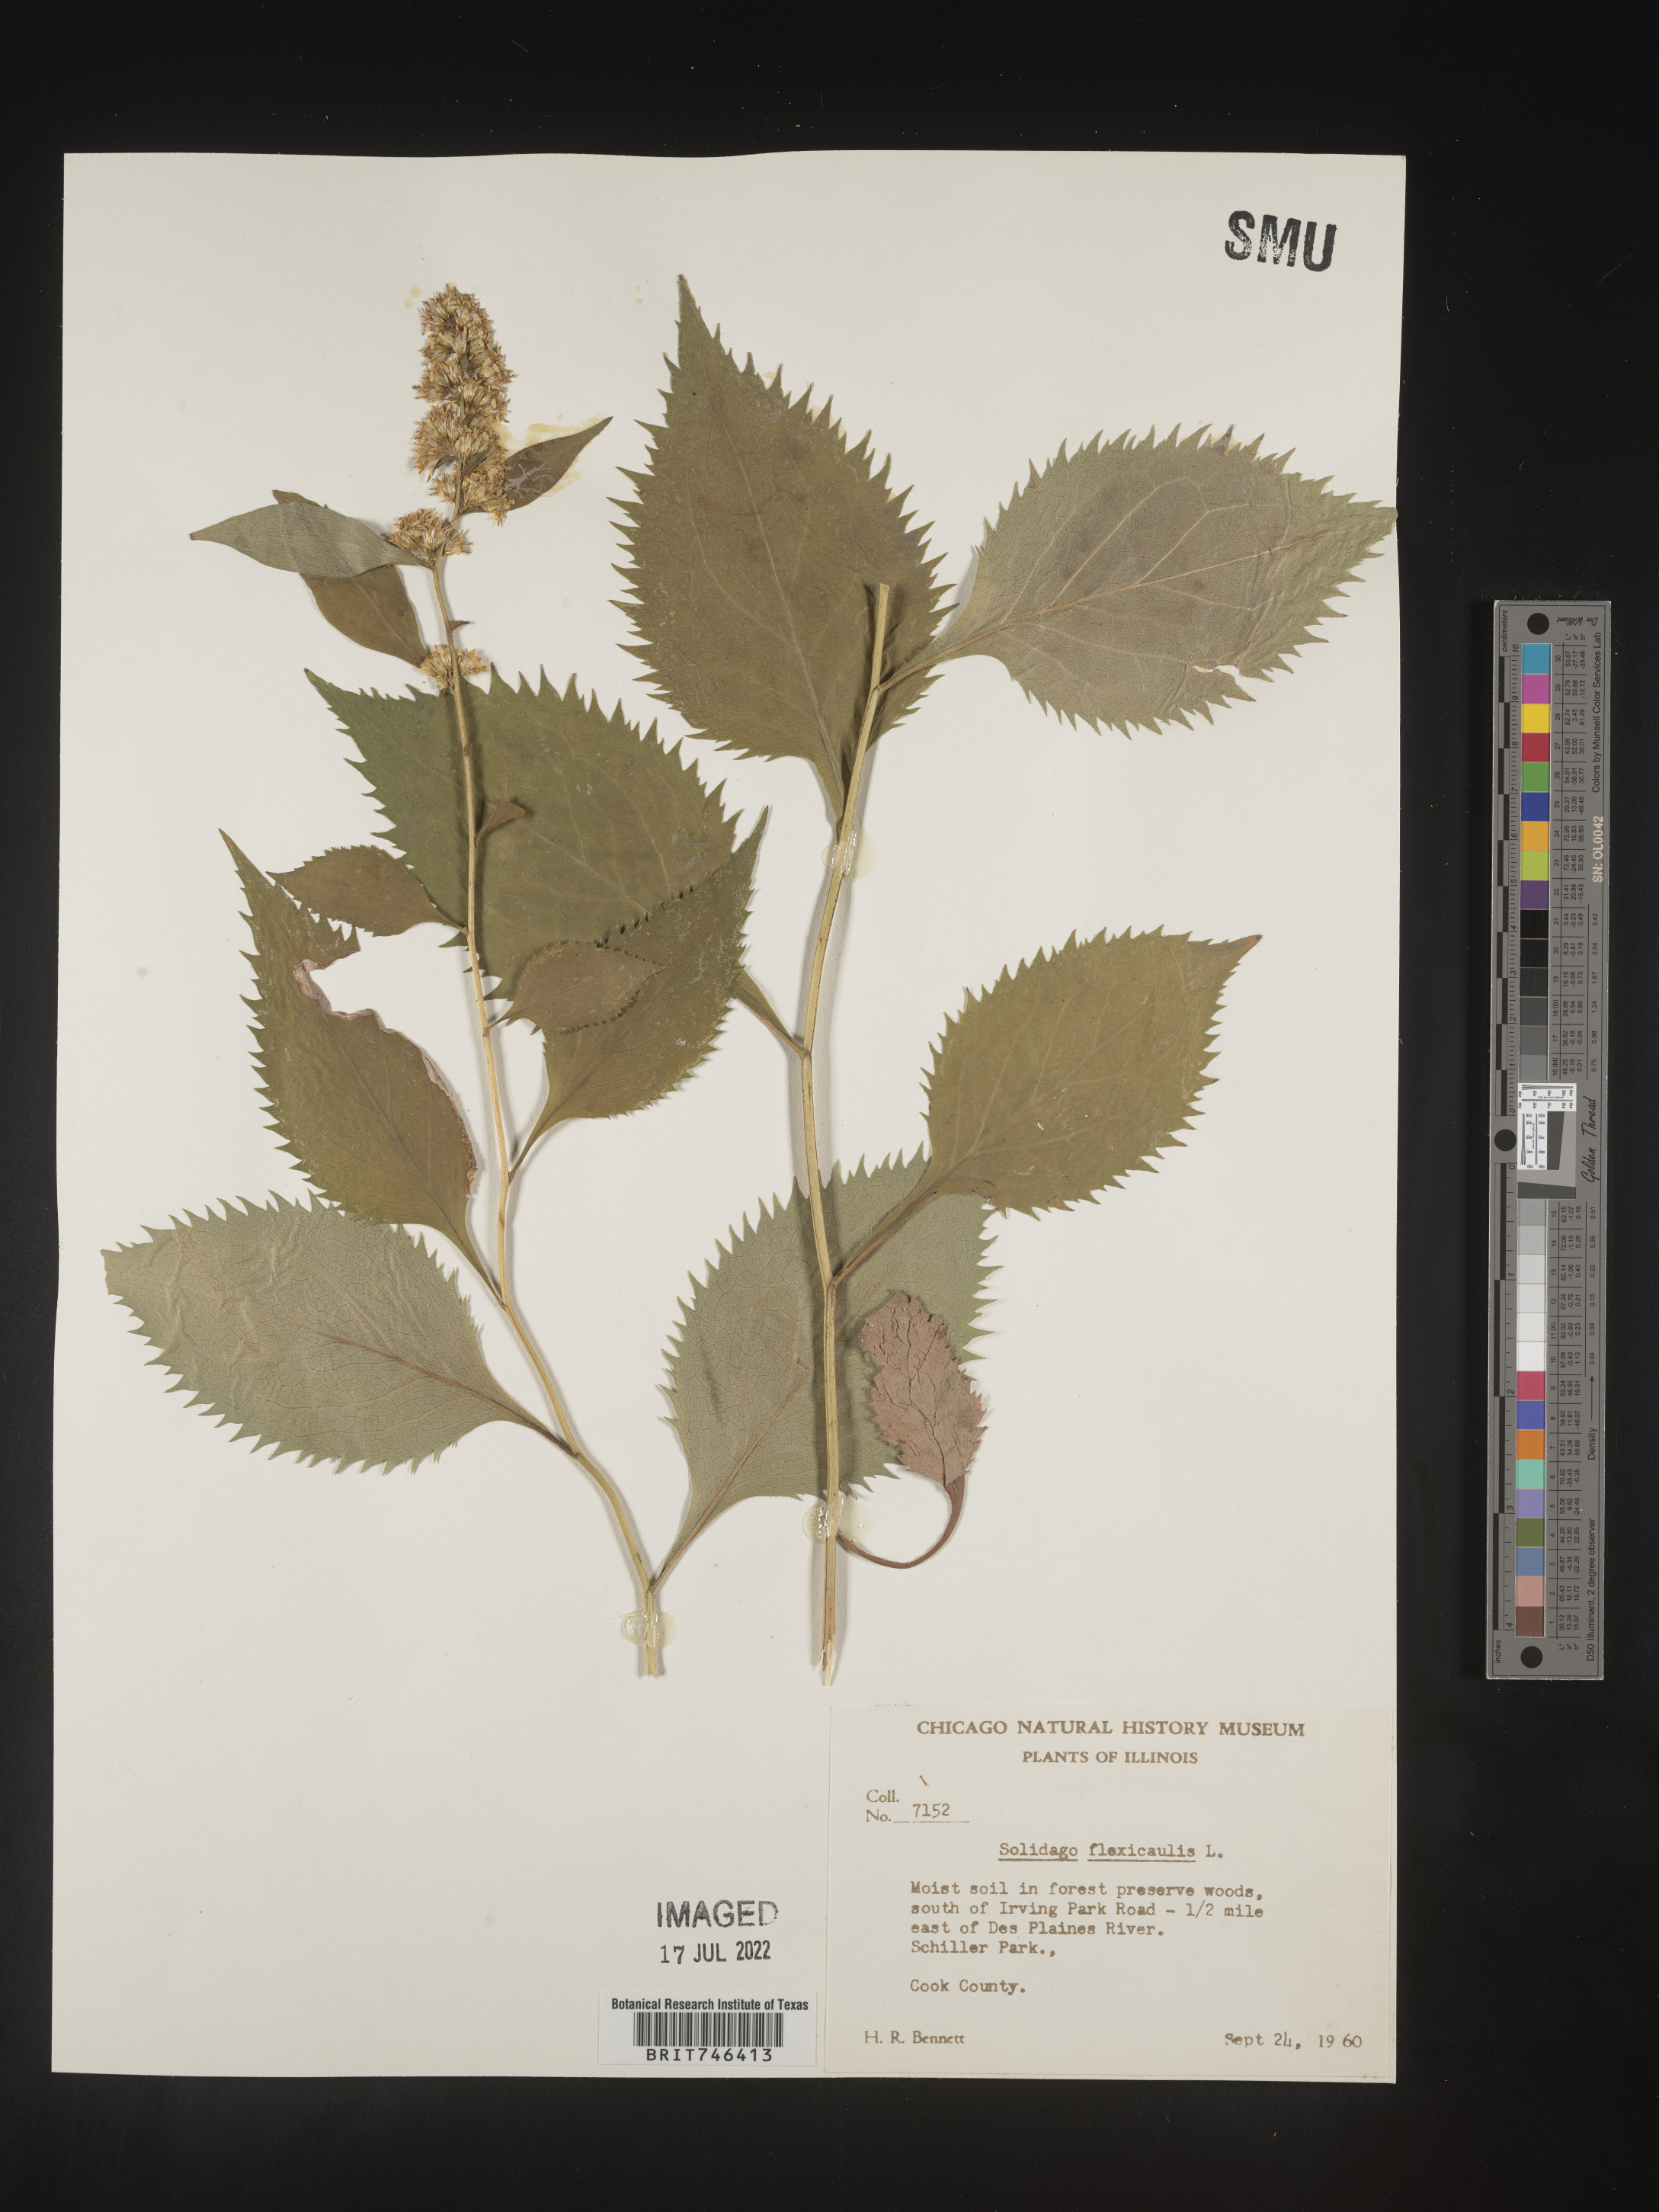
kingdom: Plantae
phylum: Tracheophyta
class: Magnoliopsida
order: Asterales
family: Asteraceae
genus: Solidago
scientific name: Solidago flexicaulis
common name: Zig-zag goldenrod
